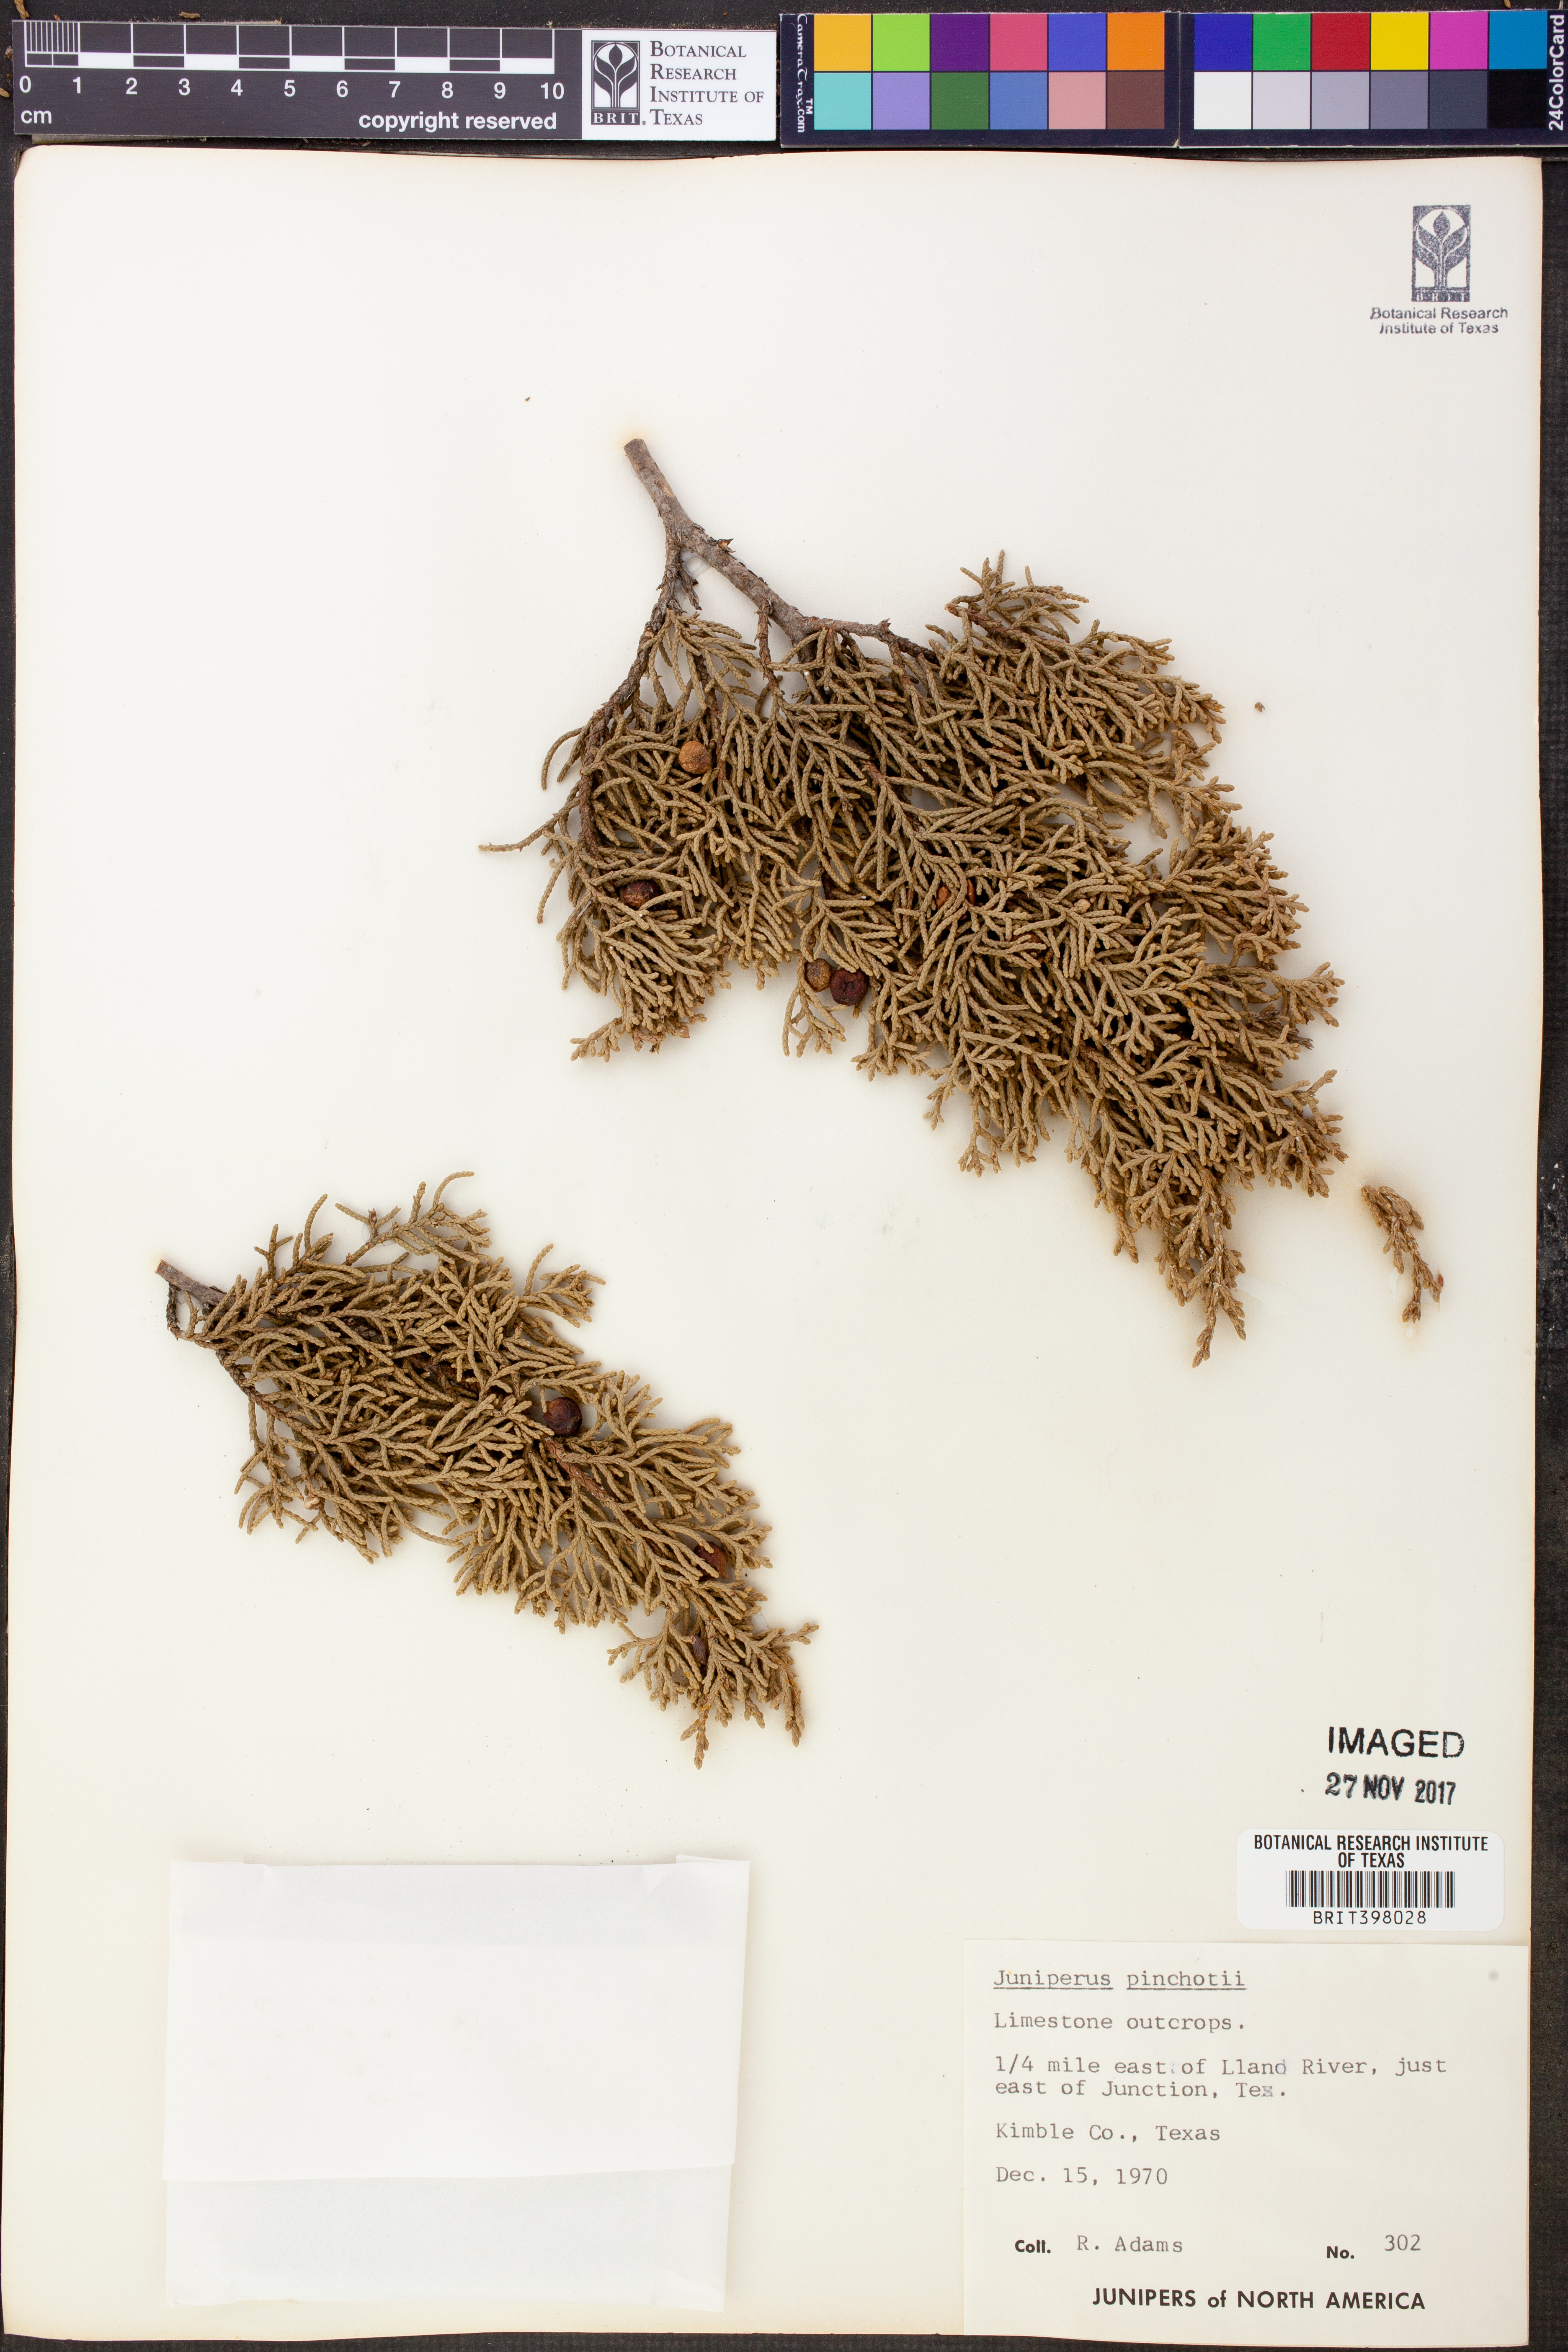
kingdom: Plantae
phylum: Tracheophyta
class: Pinopsida
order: Pinales
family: Cupressaceae
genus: Juniperus
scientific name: Juniperus pinchotii
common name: Pinchot juniper
